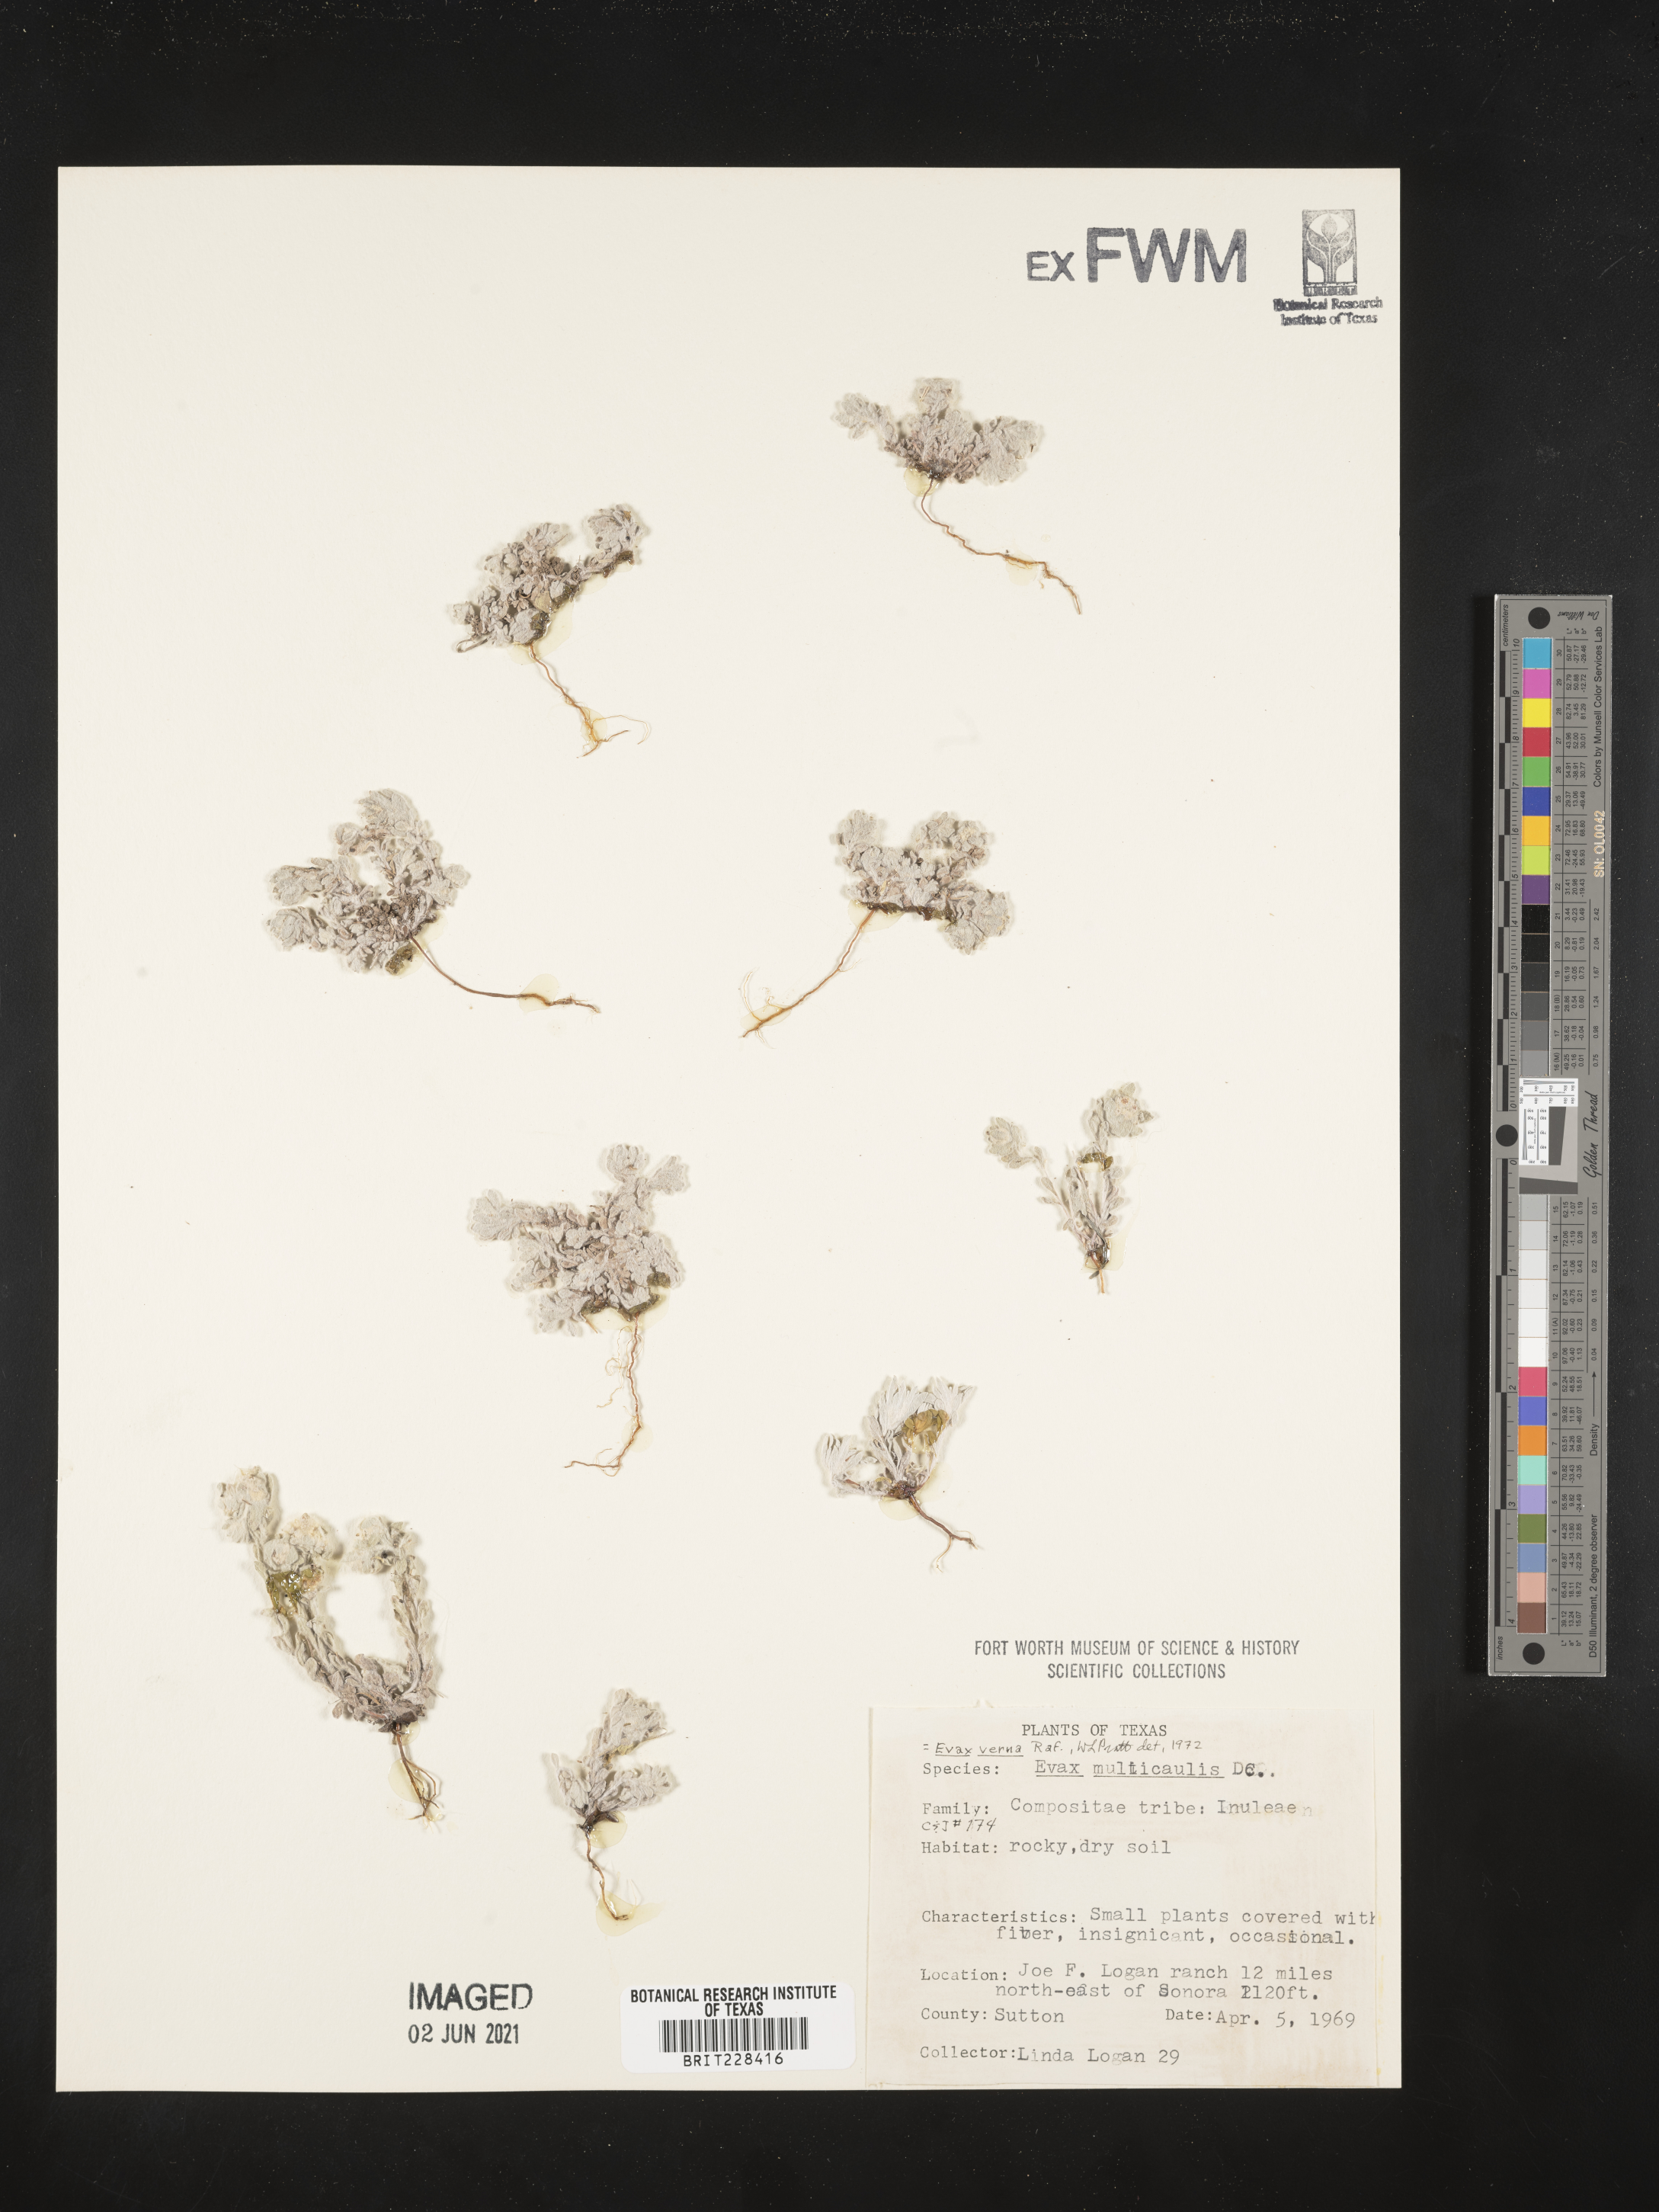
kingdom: Plantae
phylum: Tracheophyta
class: Magnoliopsida
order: Asterales
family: Asteraceae
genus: Diaperia
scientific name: Diaperia verna
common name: Many-stem rabbit-tobacco
